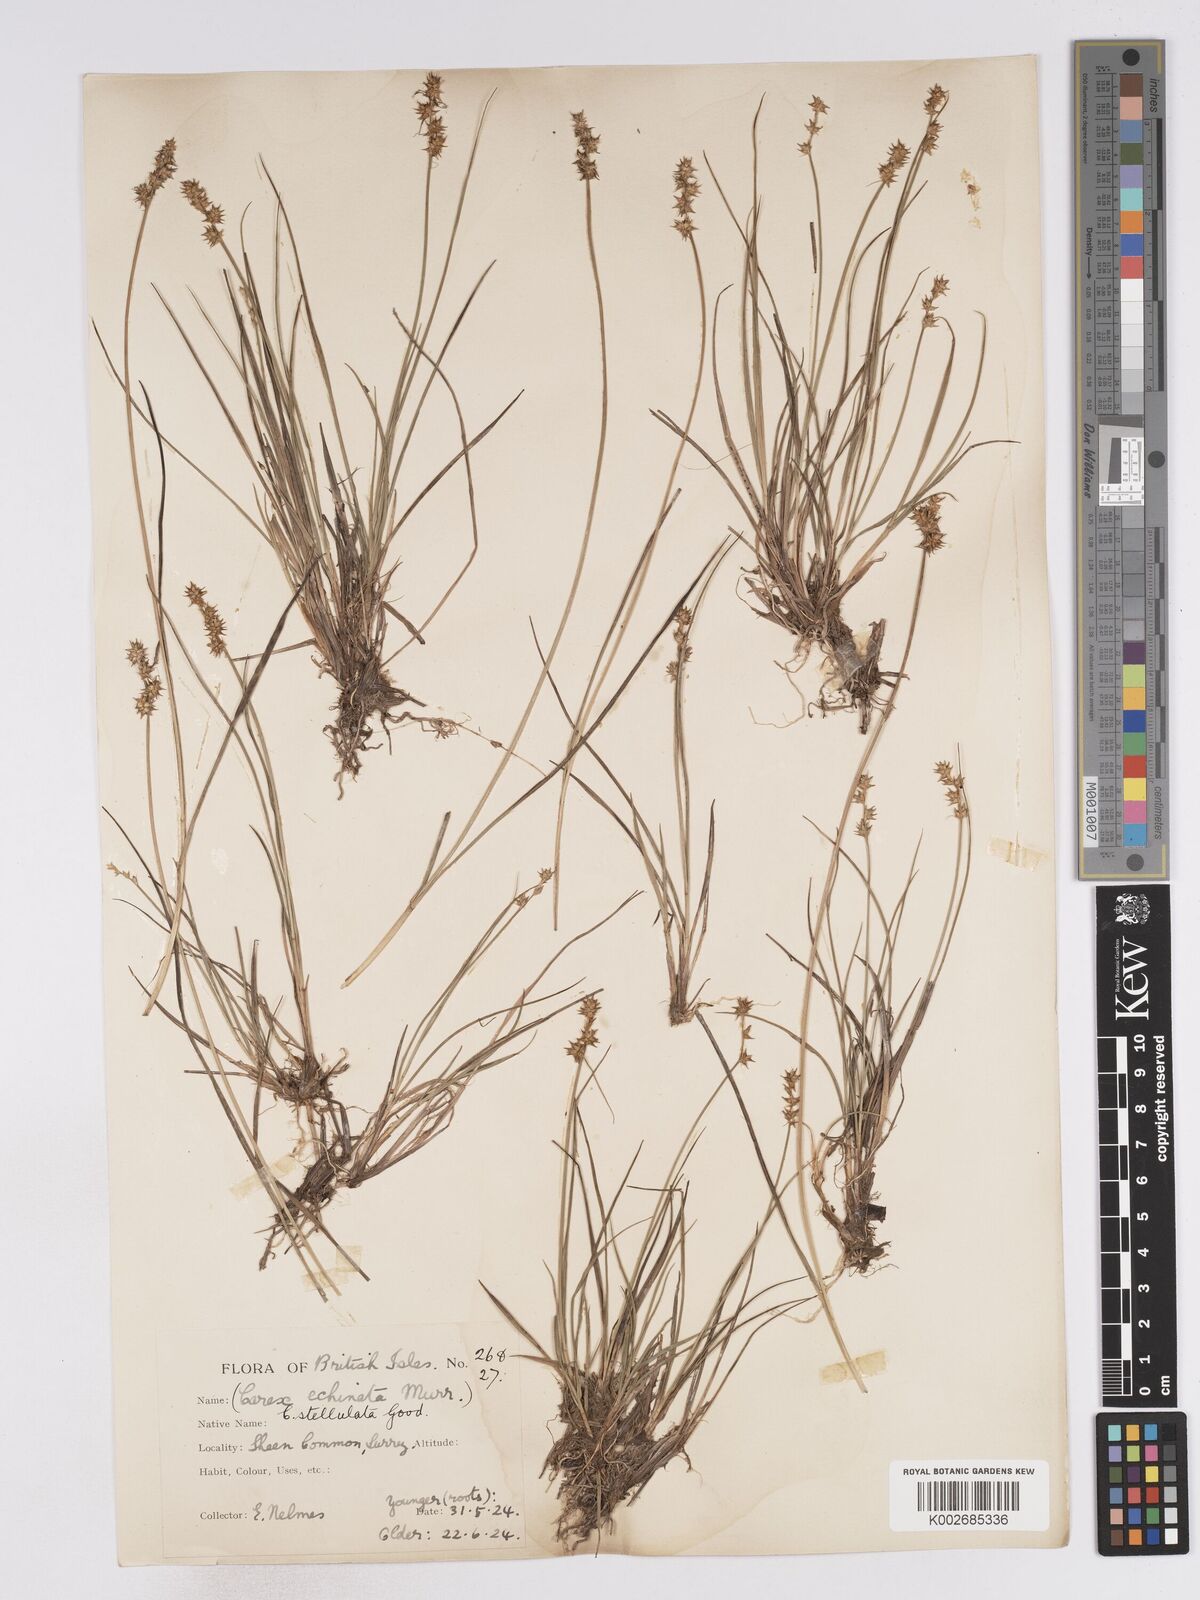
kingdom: Plantae
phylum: Tracheophyta
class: Liliopsida
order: Poales
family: Cyperaceae
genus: Carex
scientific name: Carex echinata
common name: Star sedge
